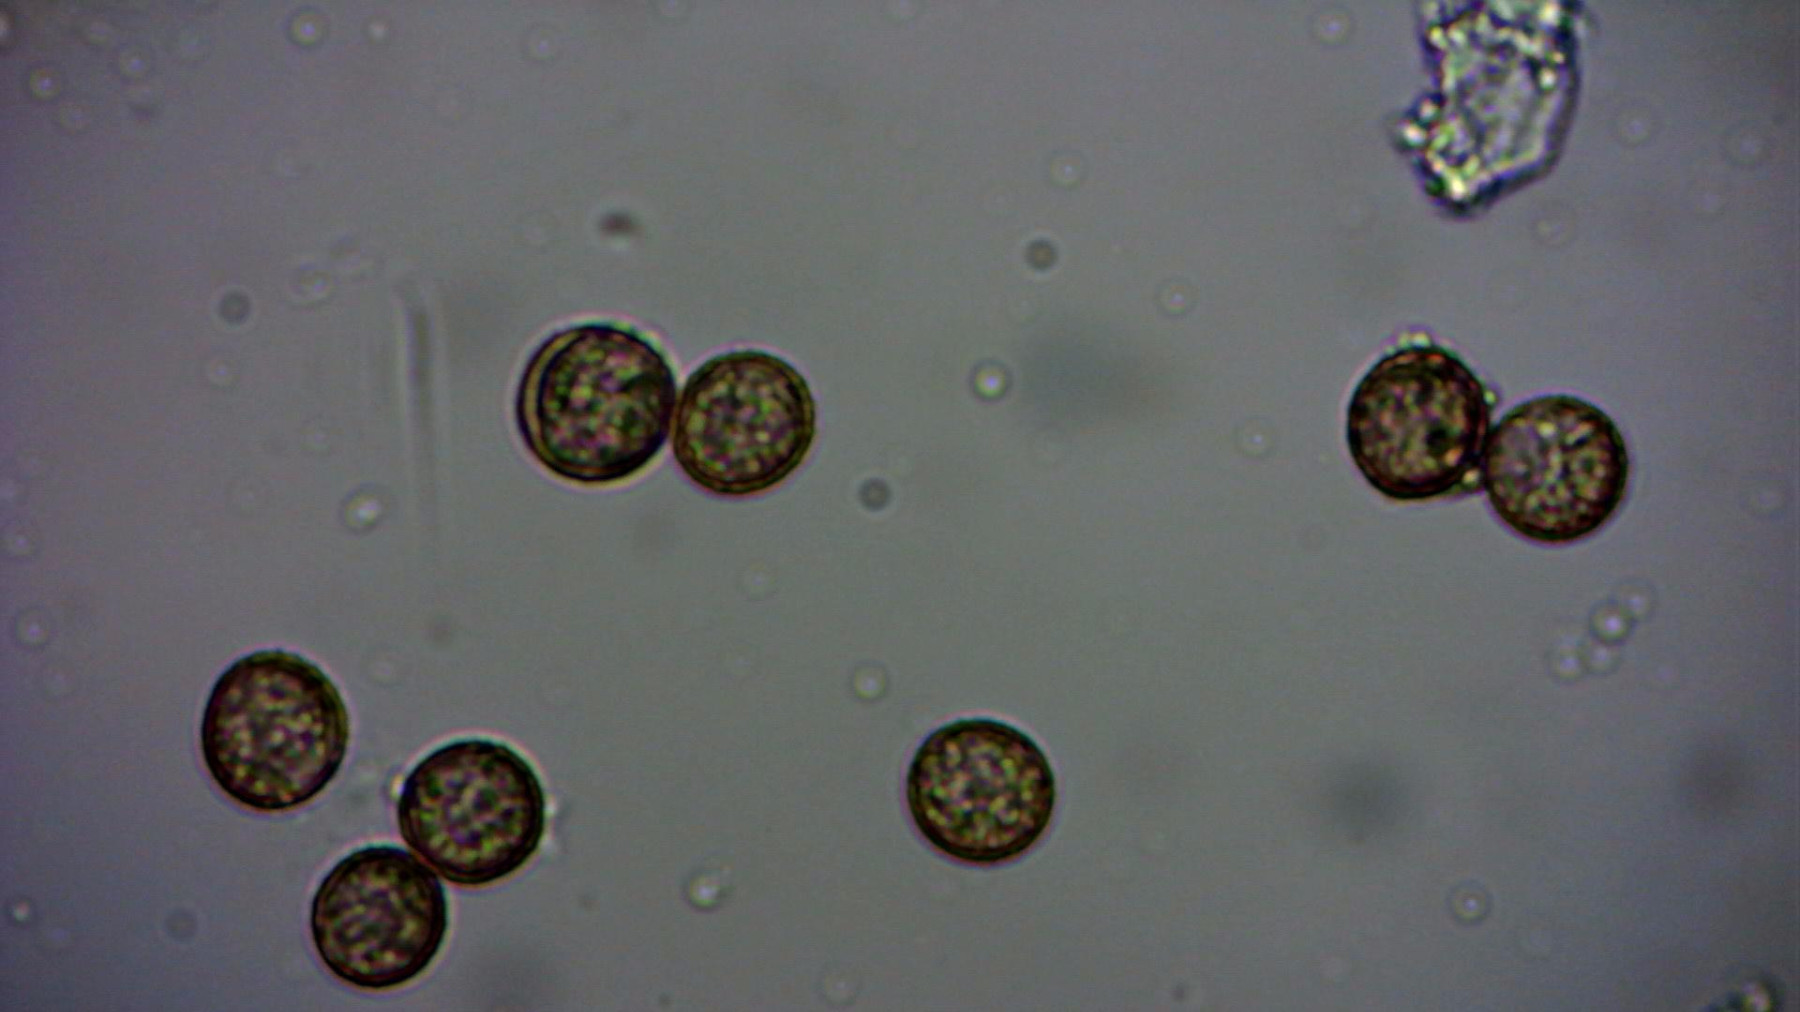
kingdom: Protozoa
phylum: Mycetozoa
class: Myxomycetes
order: Physarales
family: Didymiaceae
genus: Lepidoderma
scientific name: Lepidoderma tigrinum
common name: Lepidoderma crassipes
